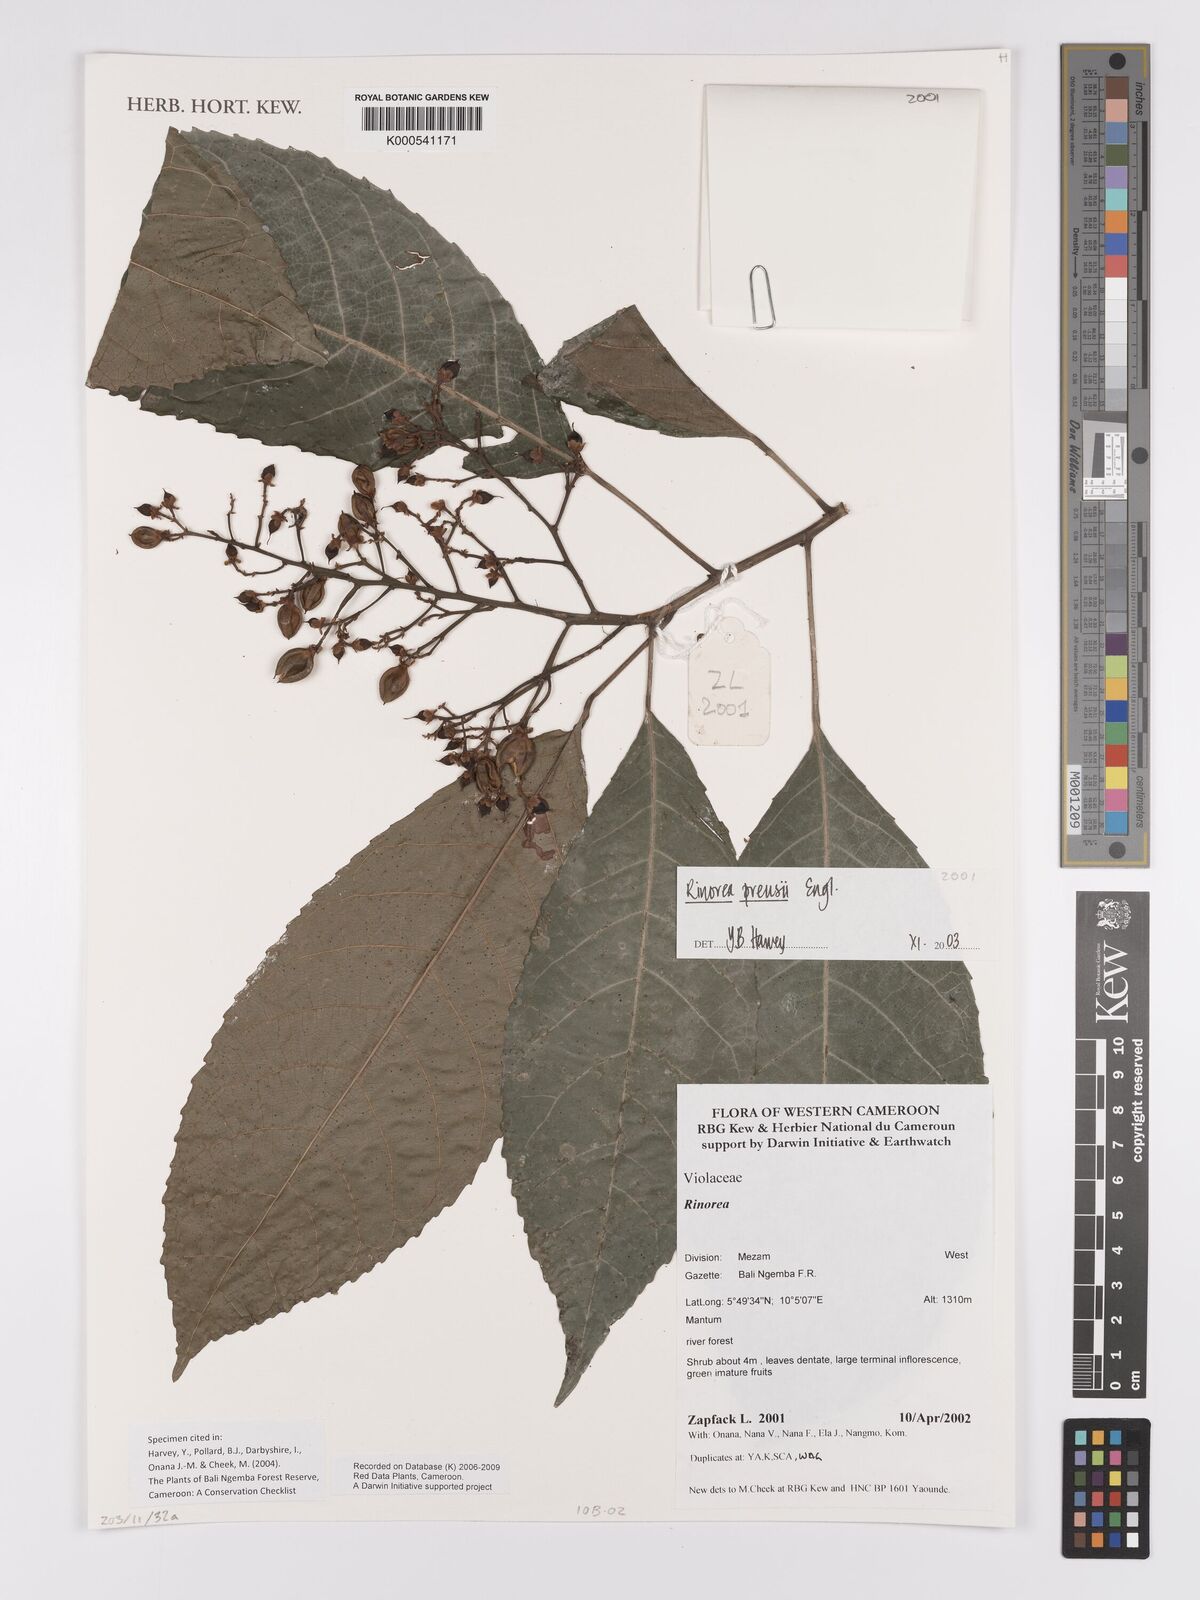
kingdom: Plantae
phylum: Tracheophyta
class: Magnoliopsida
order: Malpighiales
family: Violaceae
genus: Rinorea
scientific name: Rinorea preussii
